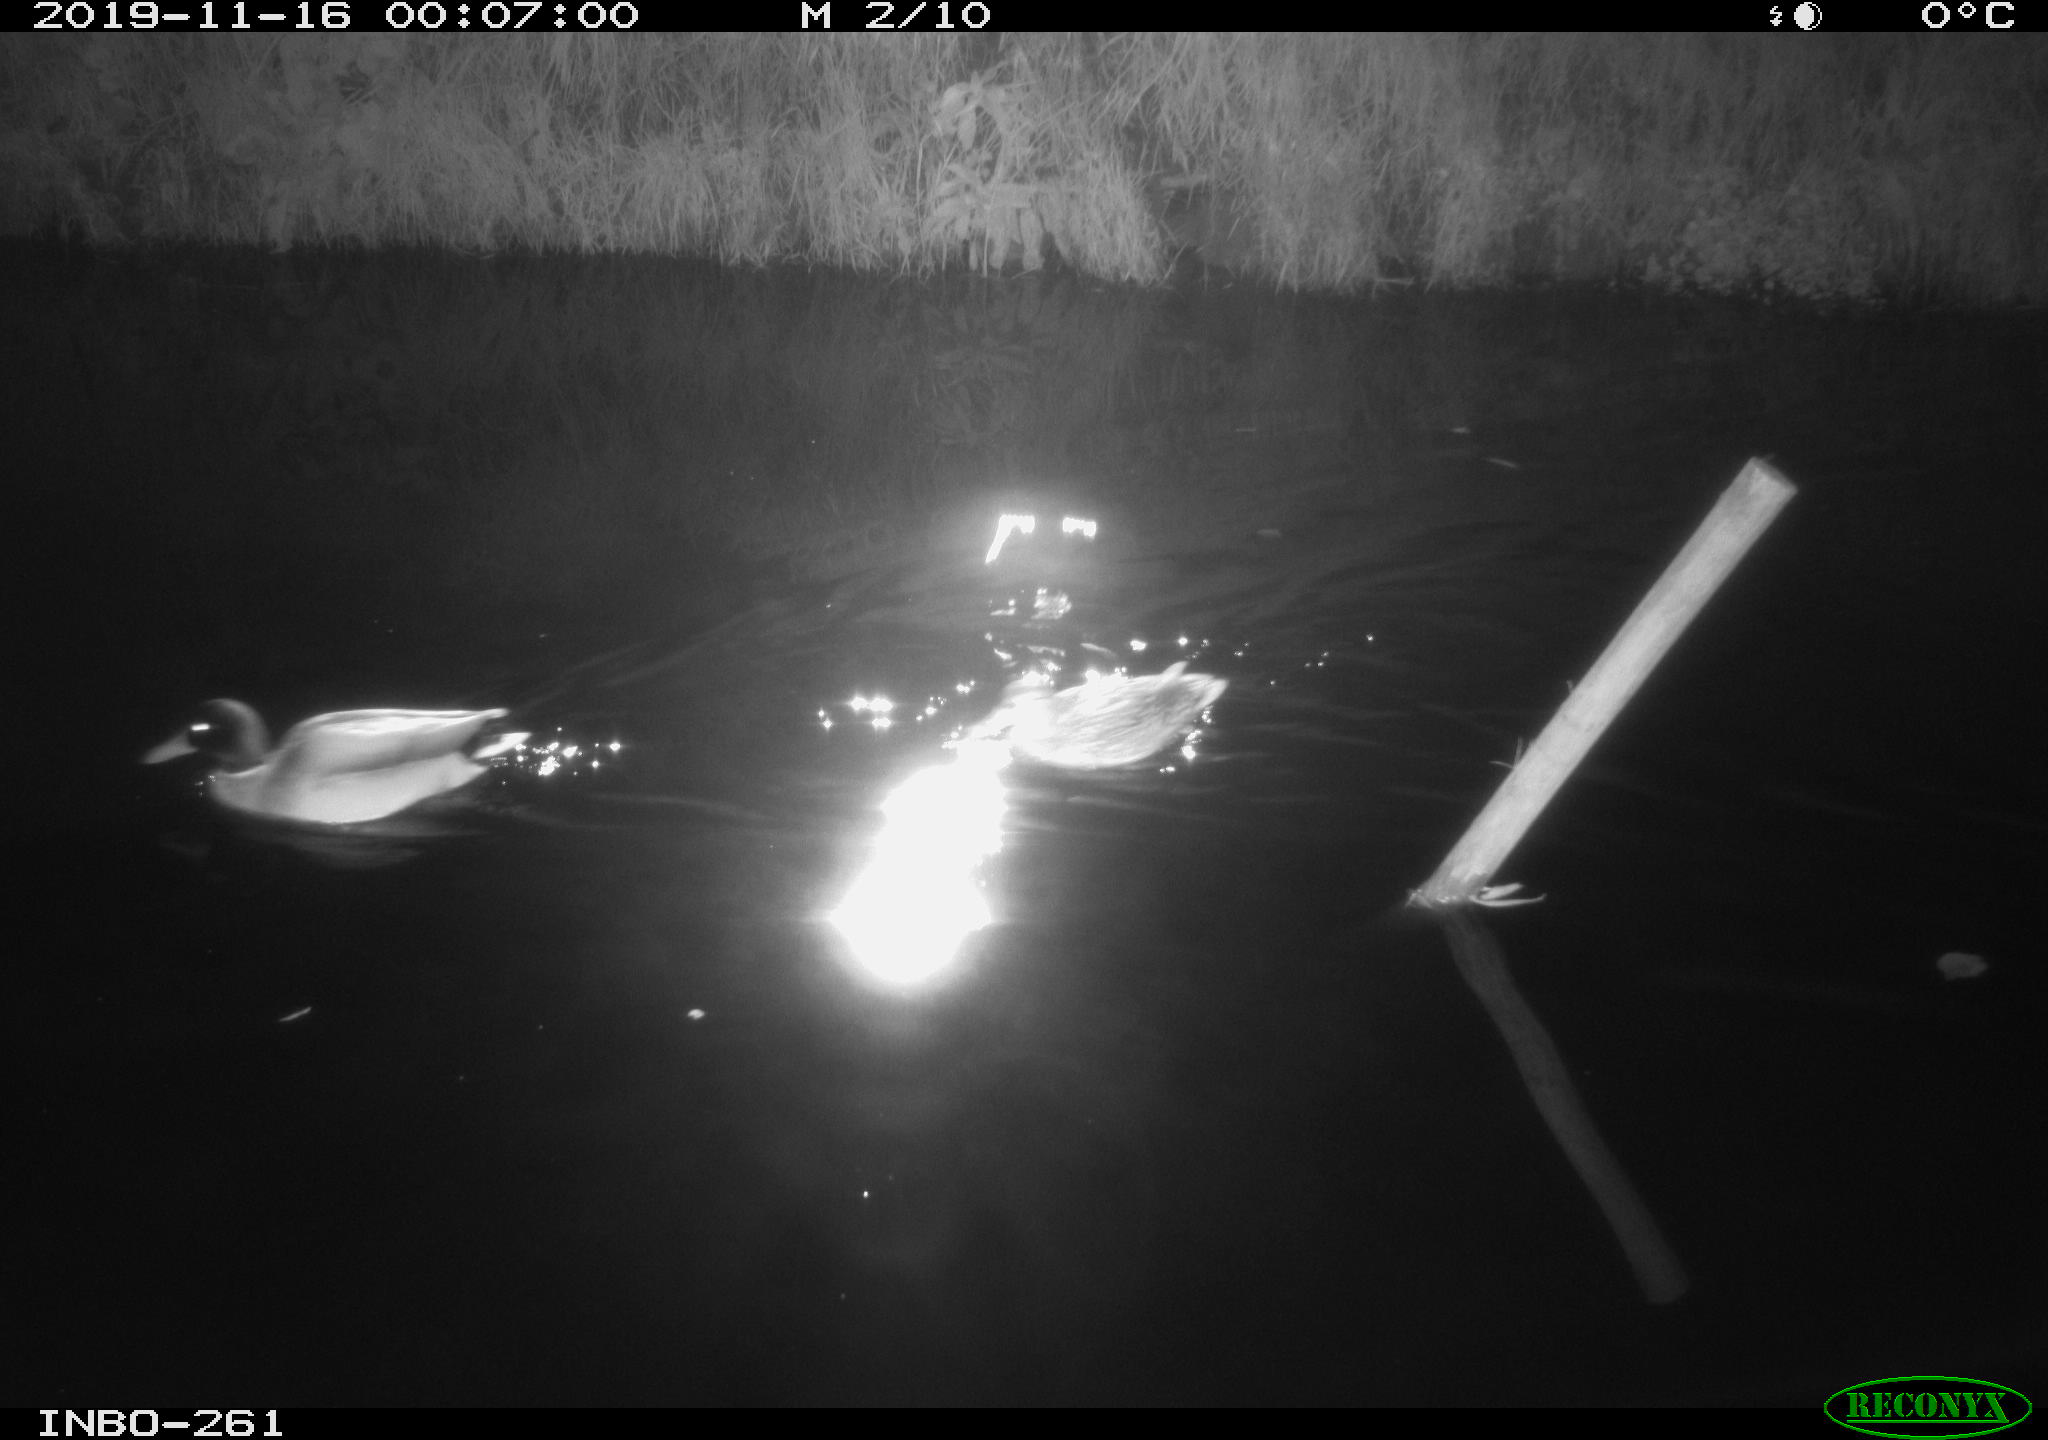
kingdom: Animalia
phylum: Chordata
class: Aves
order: Anseriformes
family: Anatidae
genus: Anas
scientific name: Anas platyrhynchos
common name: Mallard
